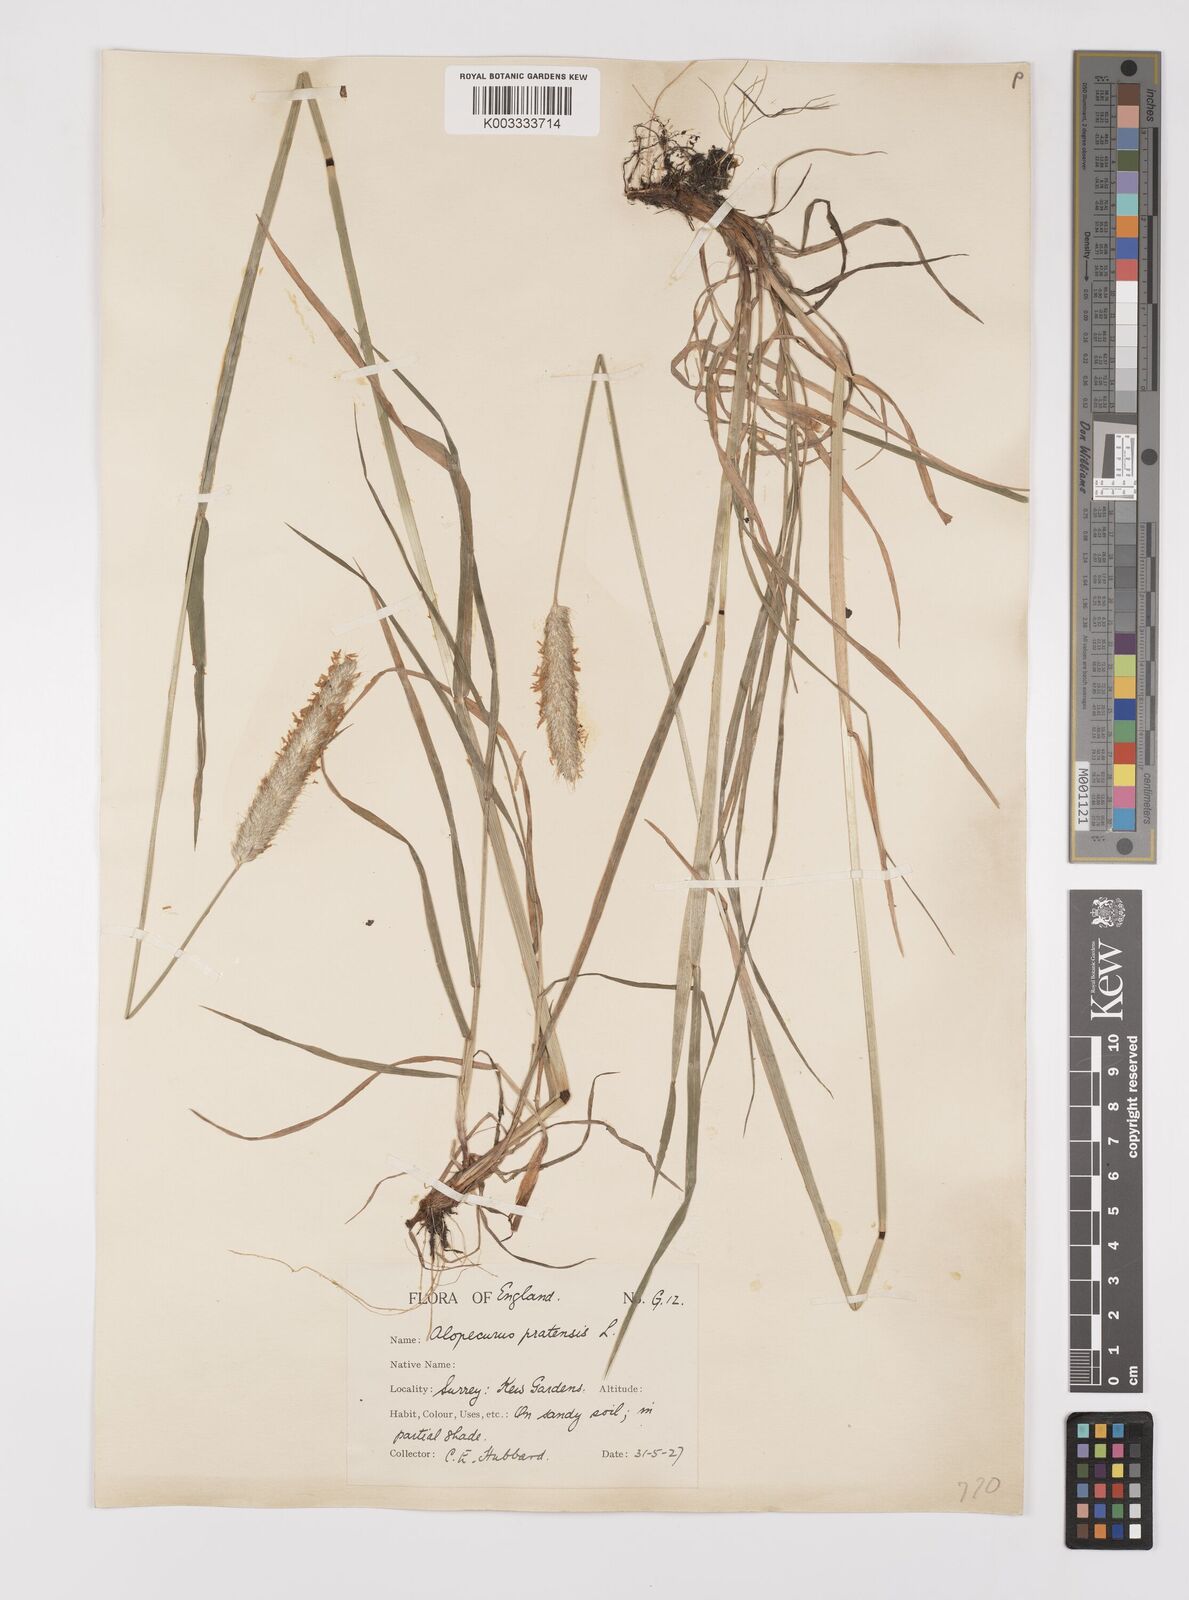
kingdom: Plantae
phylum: Tracheophyta
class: Liliopsida
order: Poales
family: Poaceae
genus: Alopecurus
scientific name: Alopecurus pratensis
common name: Meadow foxtail
